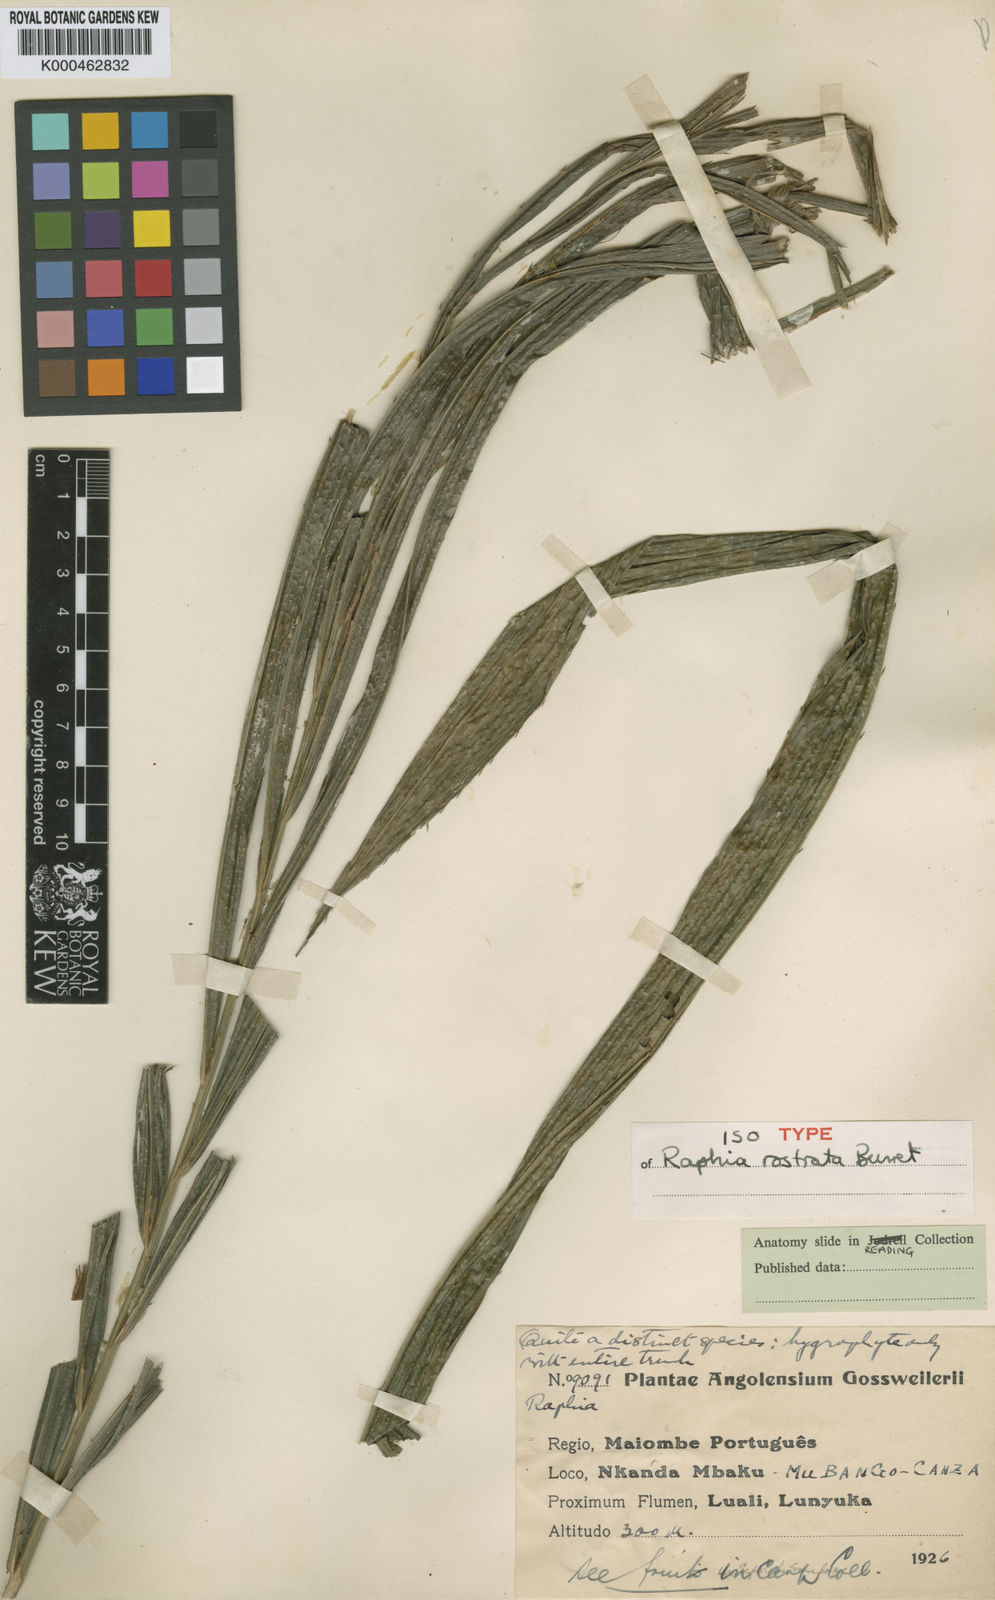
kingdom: Plantae
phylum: Tracheophyta
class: Liliopsida
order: Arecales
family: Arecaceae
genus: Raphia
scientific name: Raphia rostrata
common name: Raphia palm
